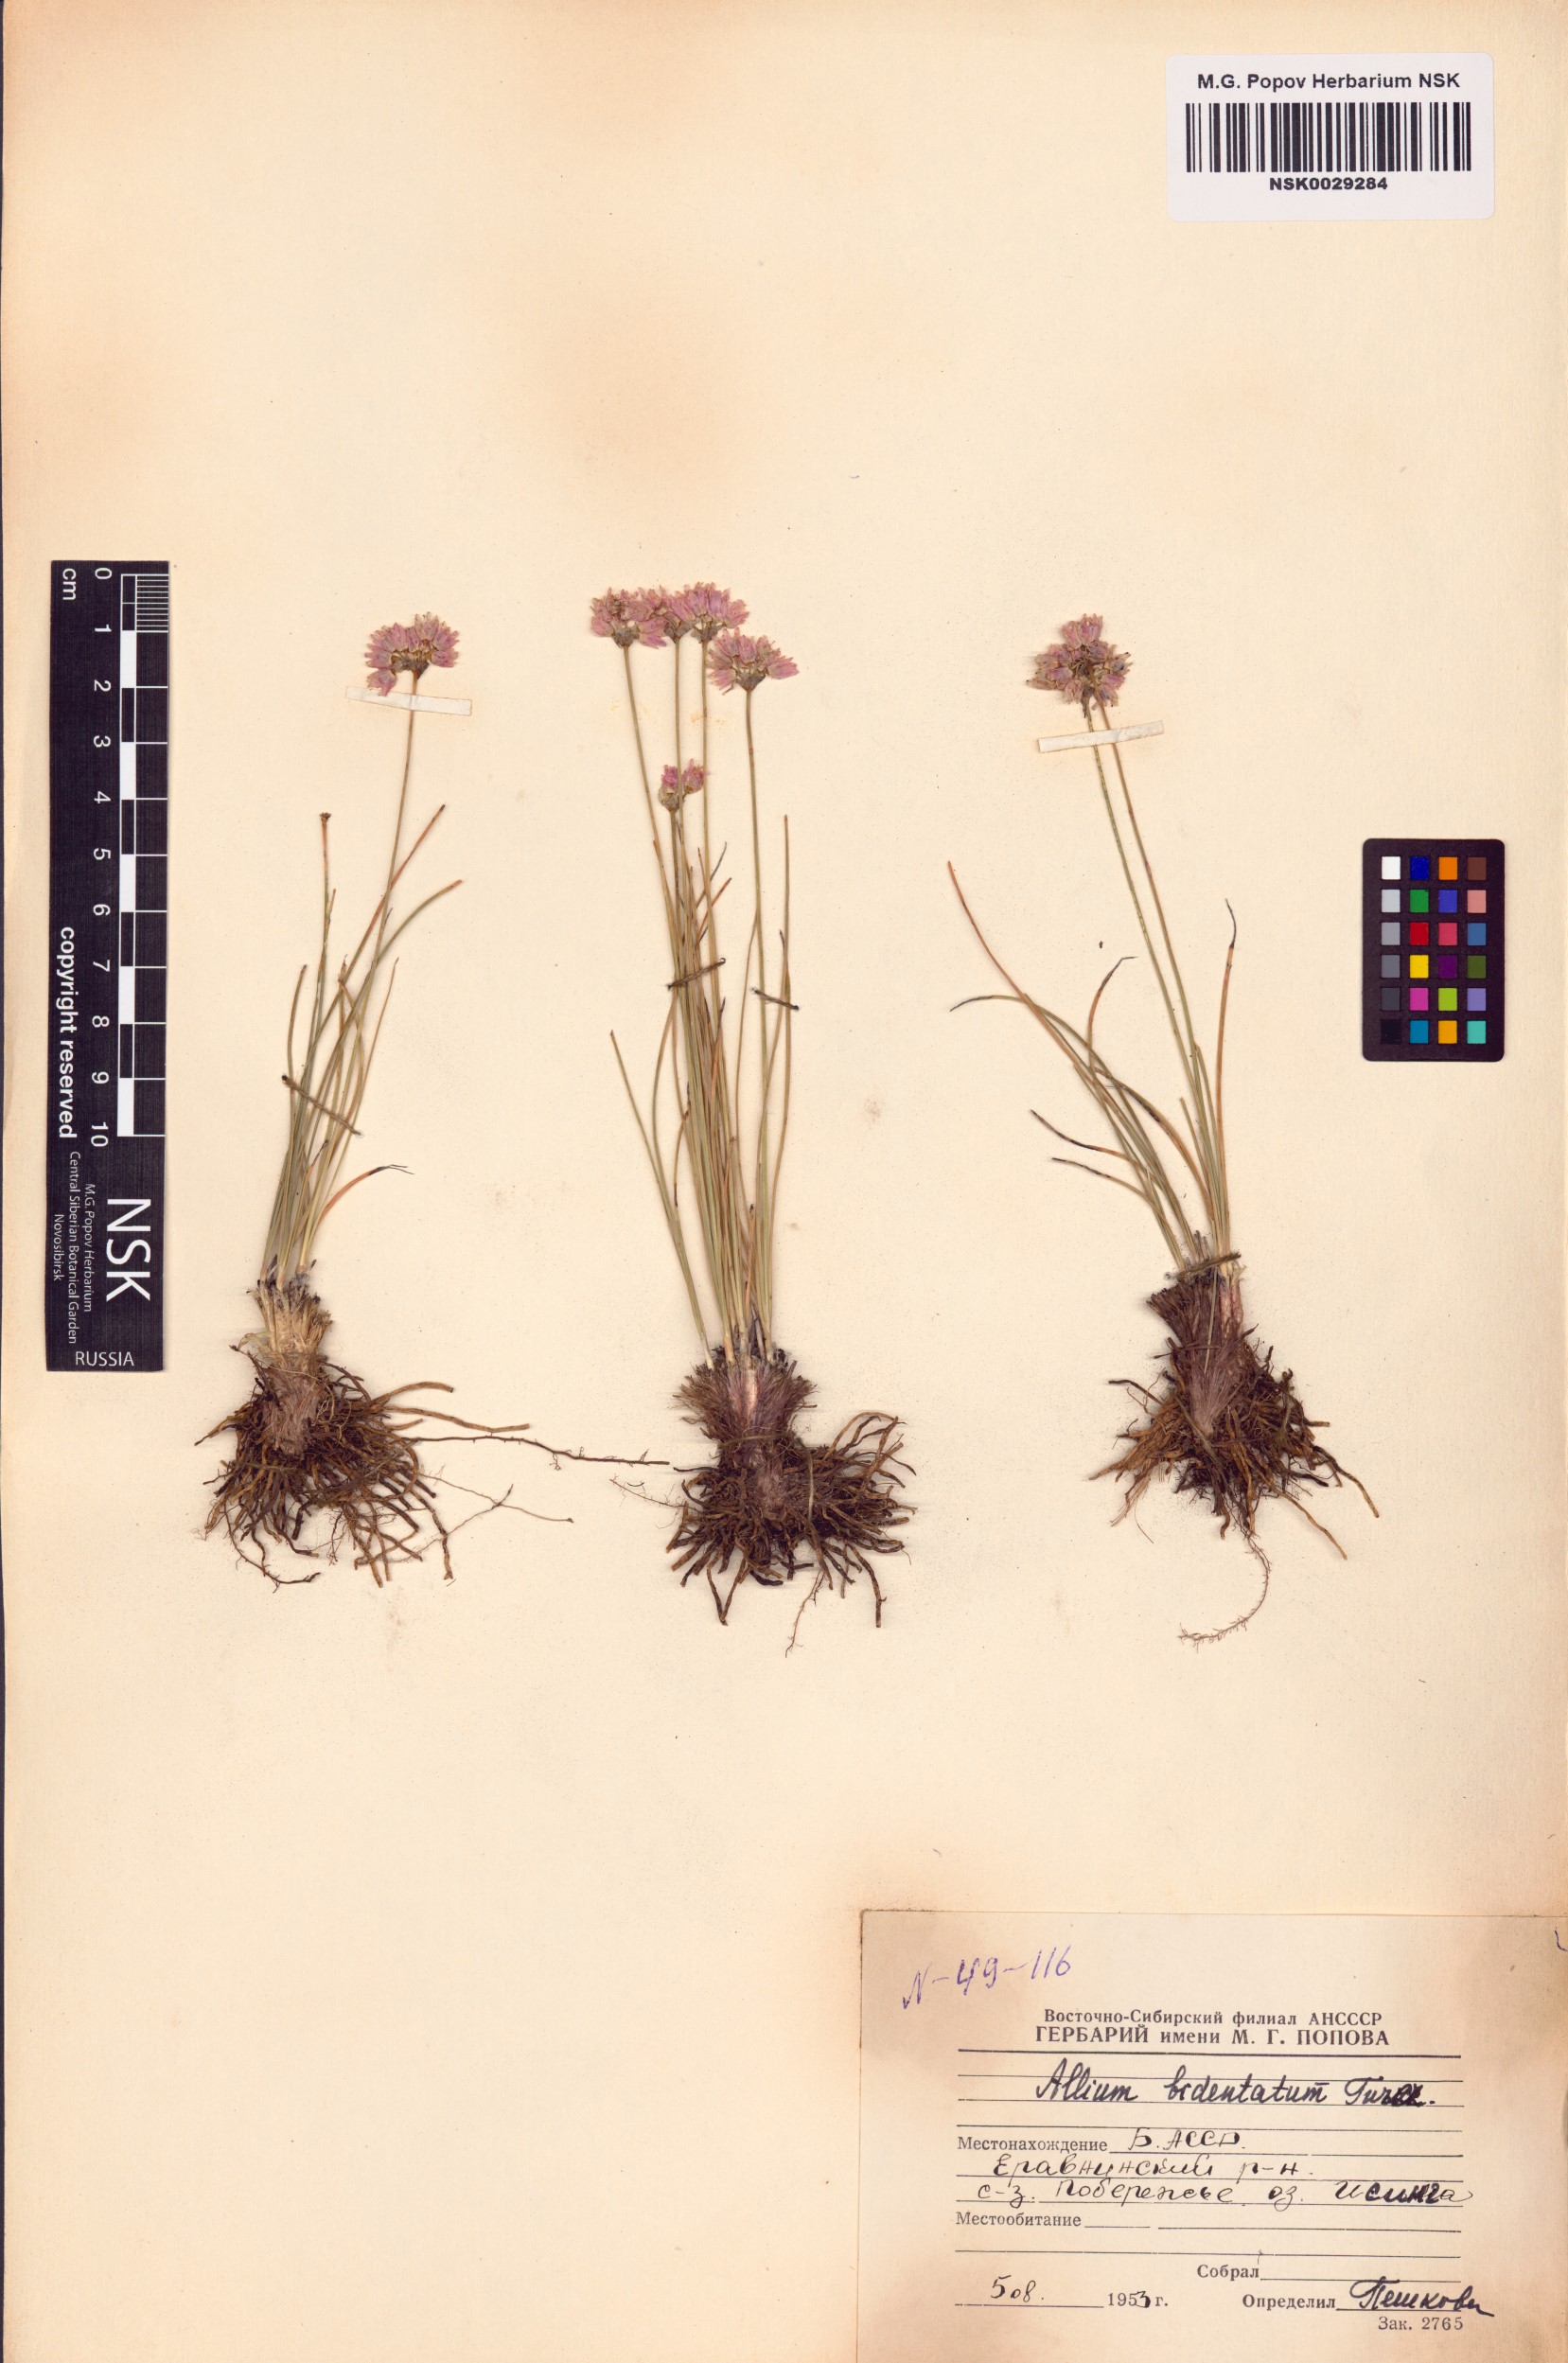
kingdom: Plantae
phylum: Tracheophyta
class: Liliopsida
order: Asparagales
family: Amaryllidaceae
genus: Allium
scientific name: Allium bidentatum
